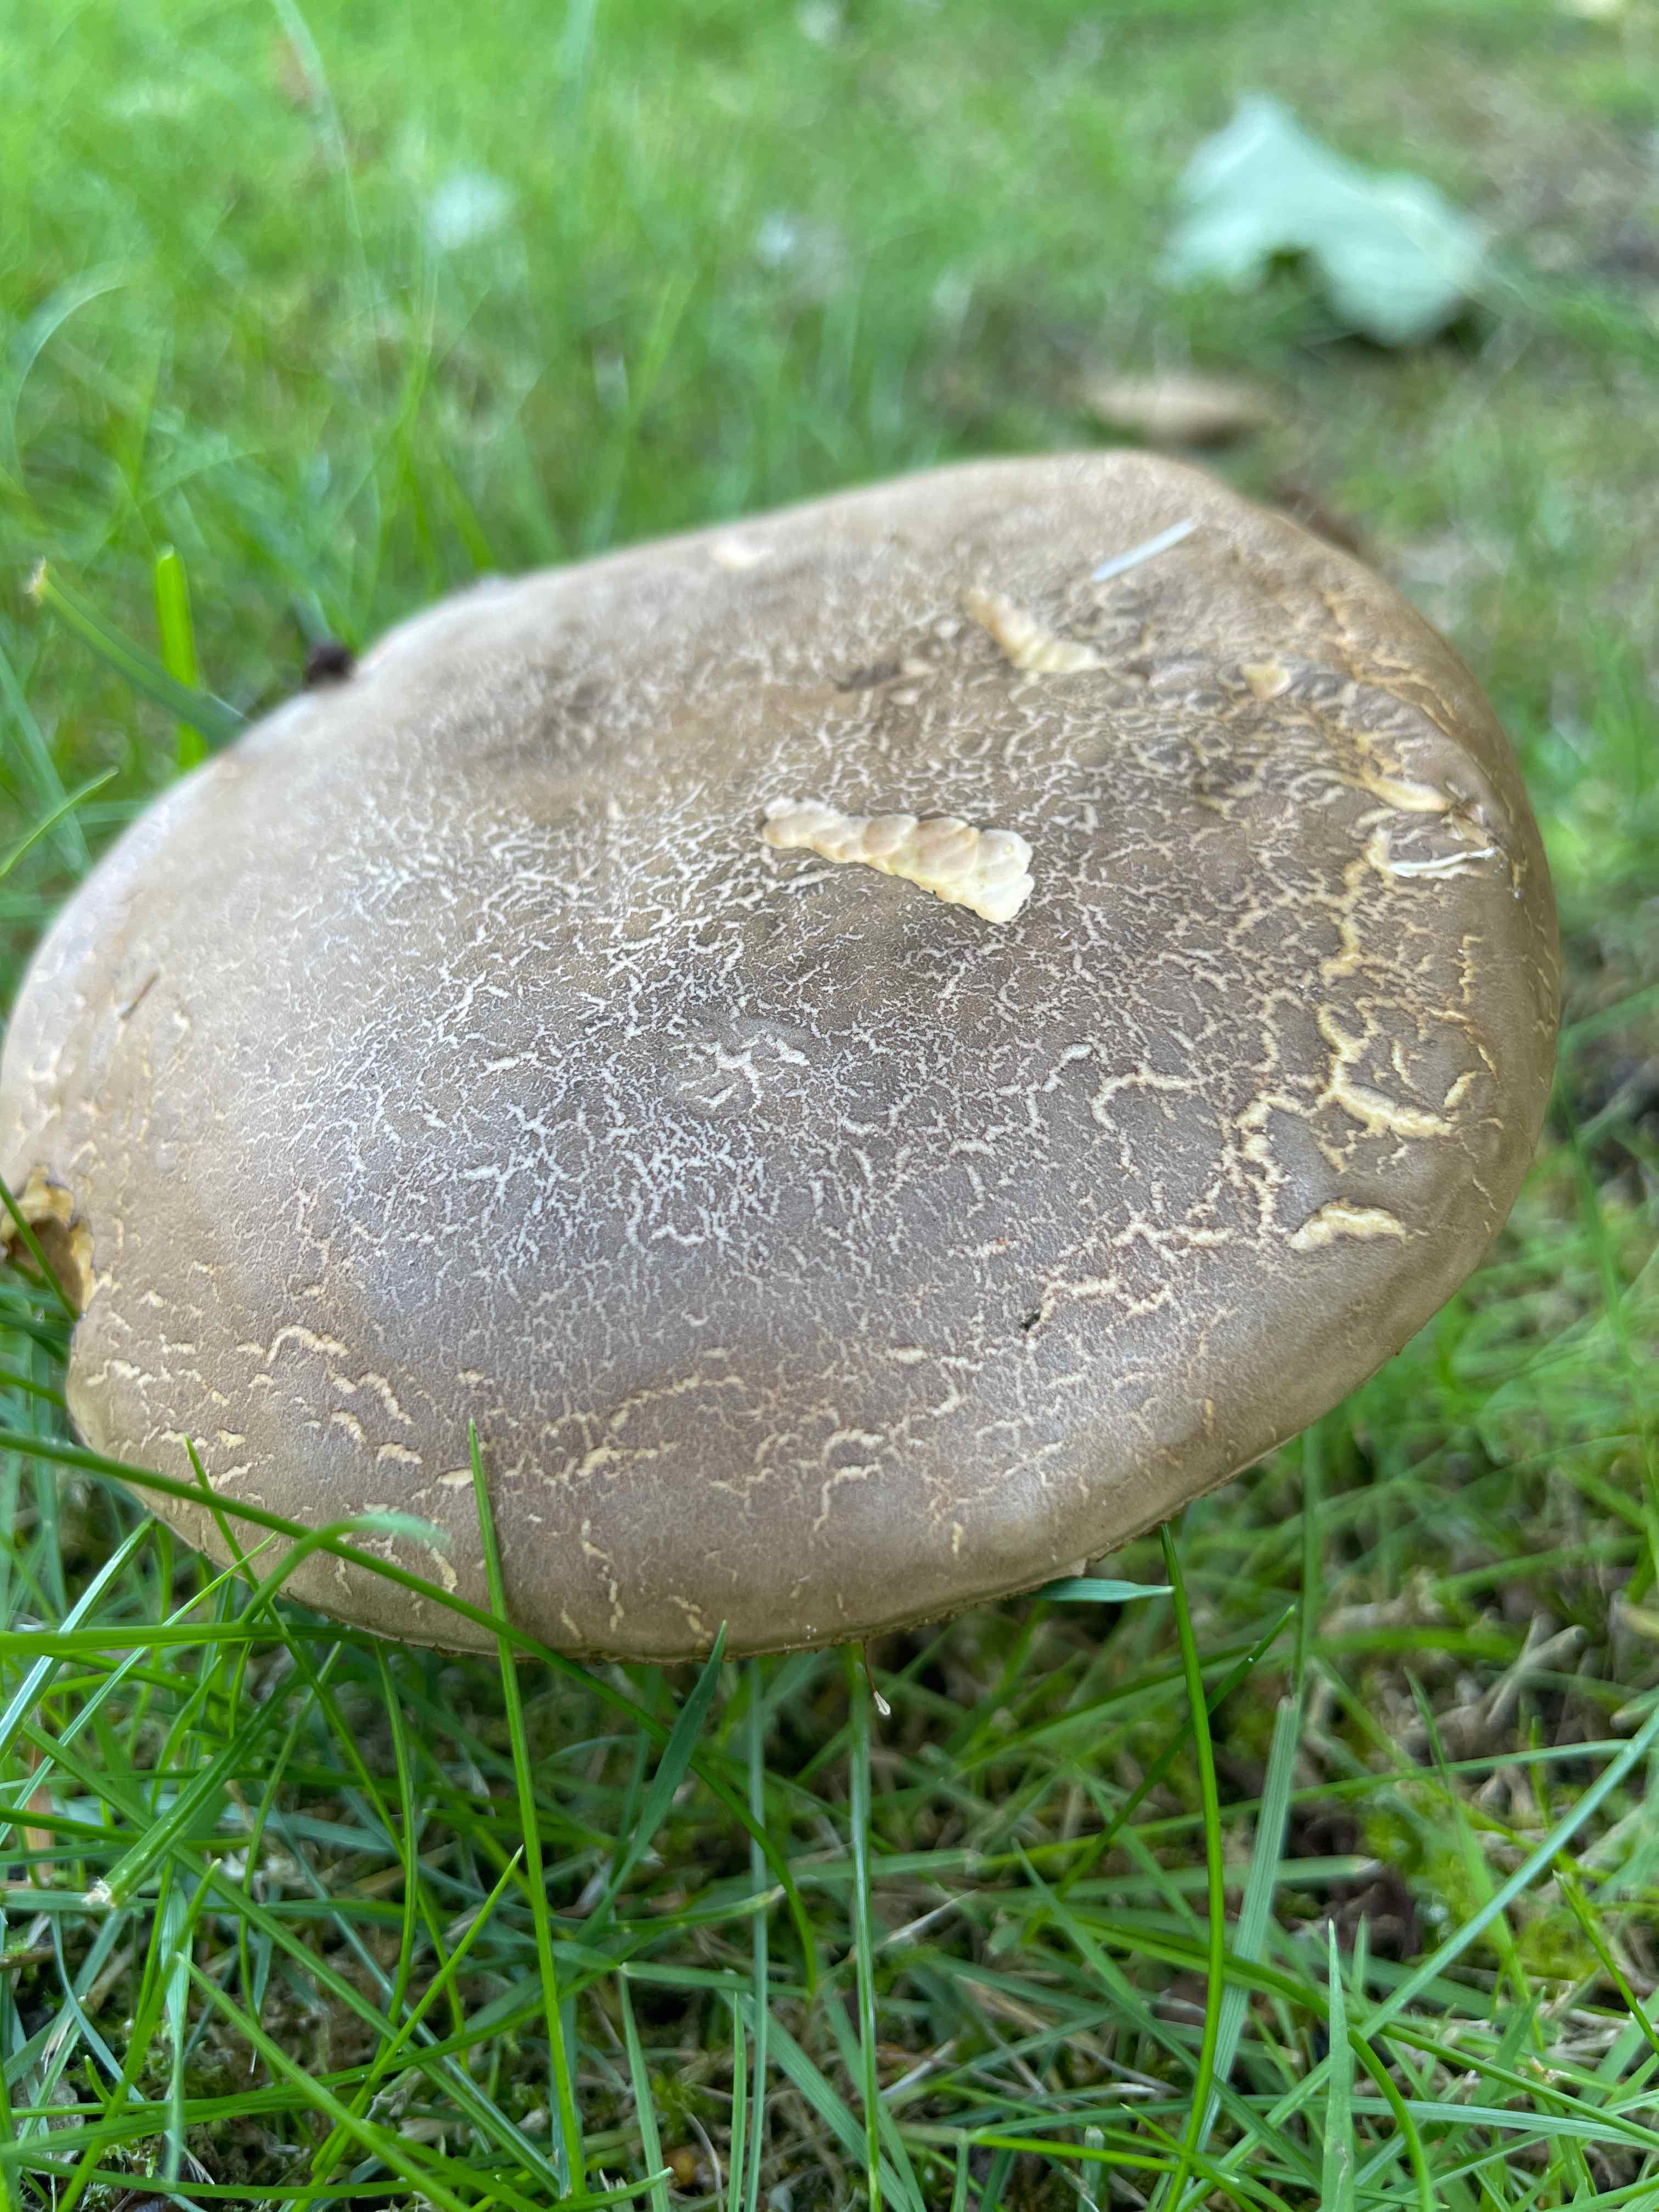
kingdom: Fungi
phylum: Basidiomycota
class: Agaricomycetes
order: Boletales
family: Boletaceae
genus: Xerocomellus
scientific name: Xerocomellus porosporus
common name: hvidsprukken rørhat
